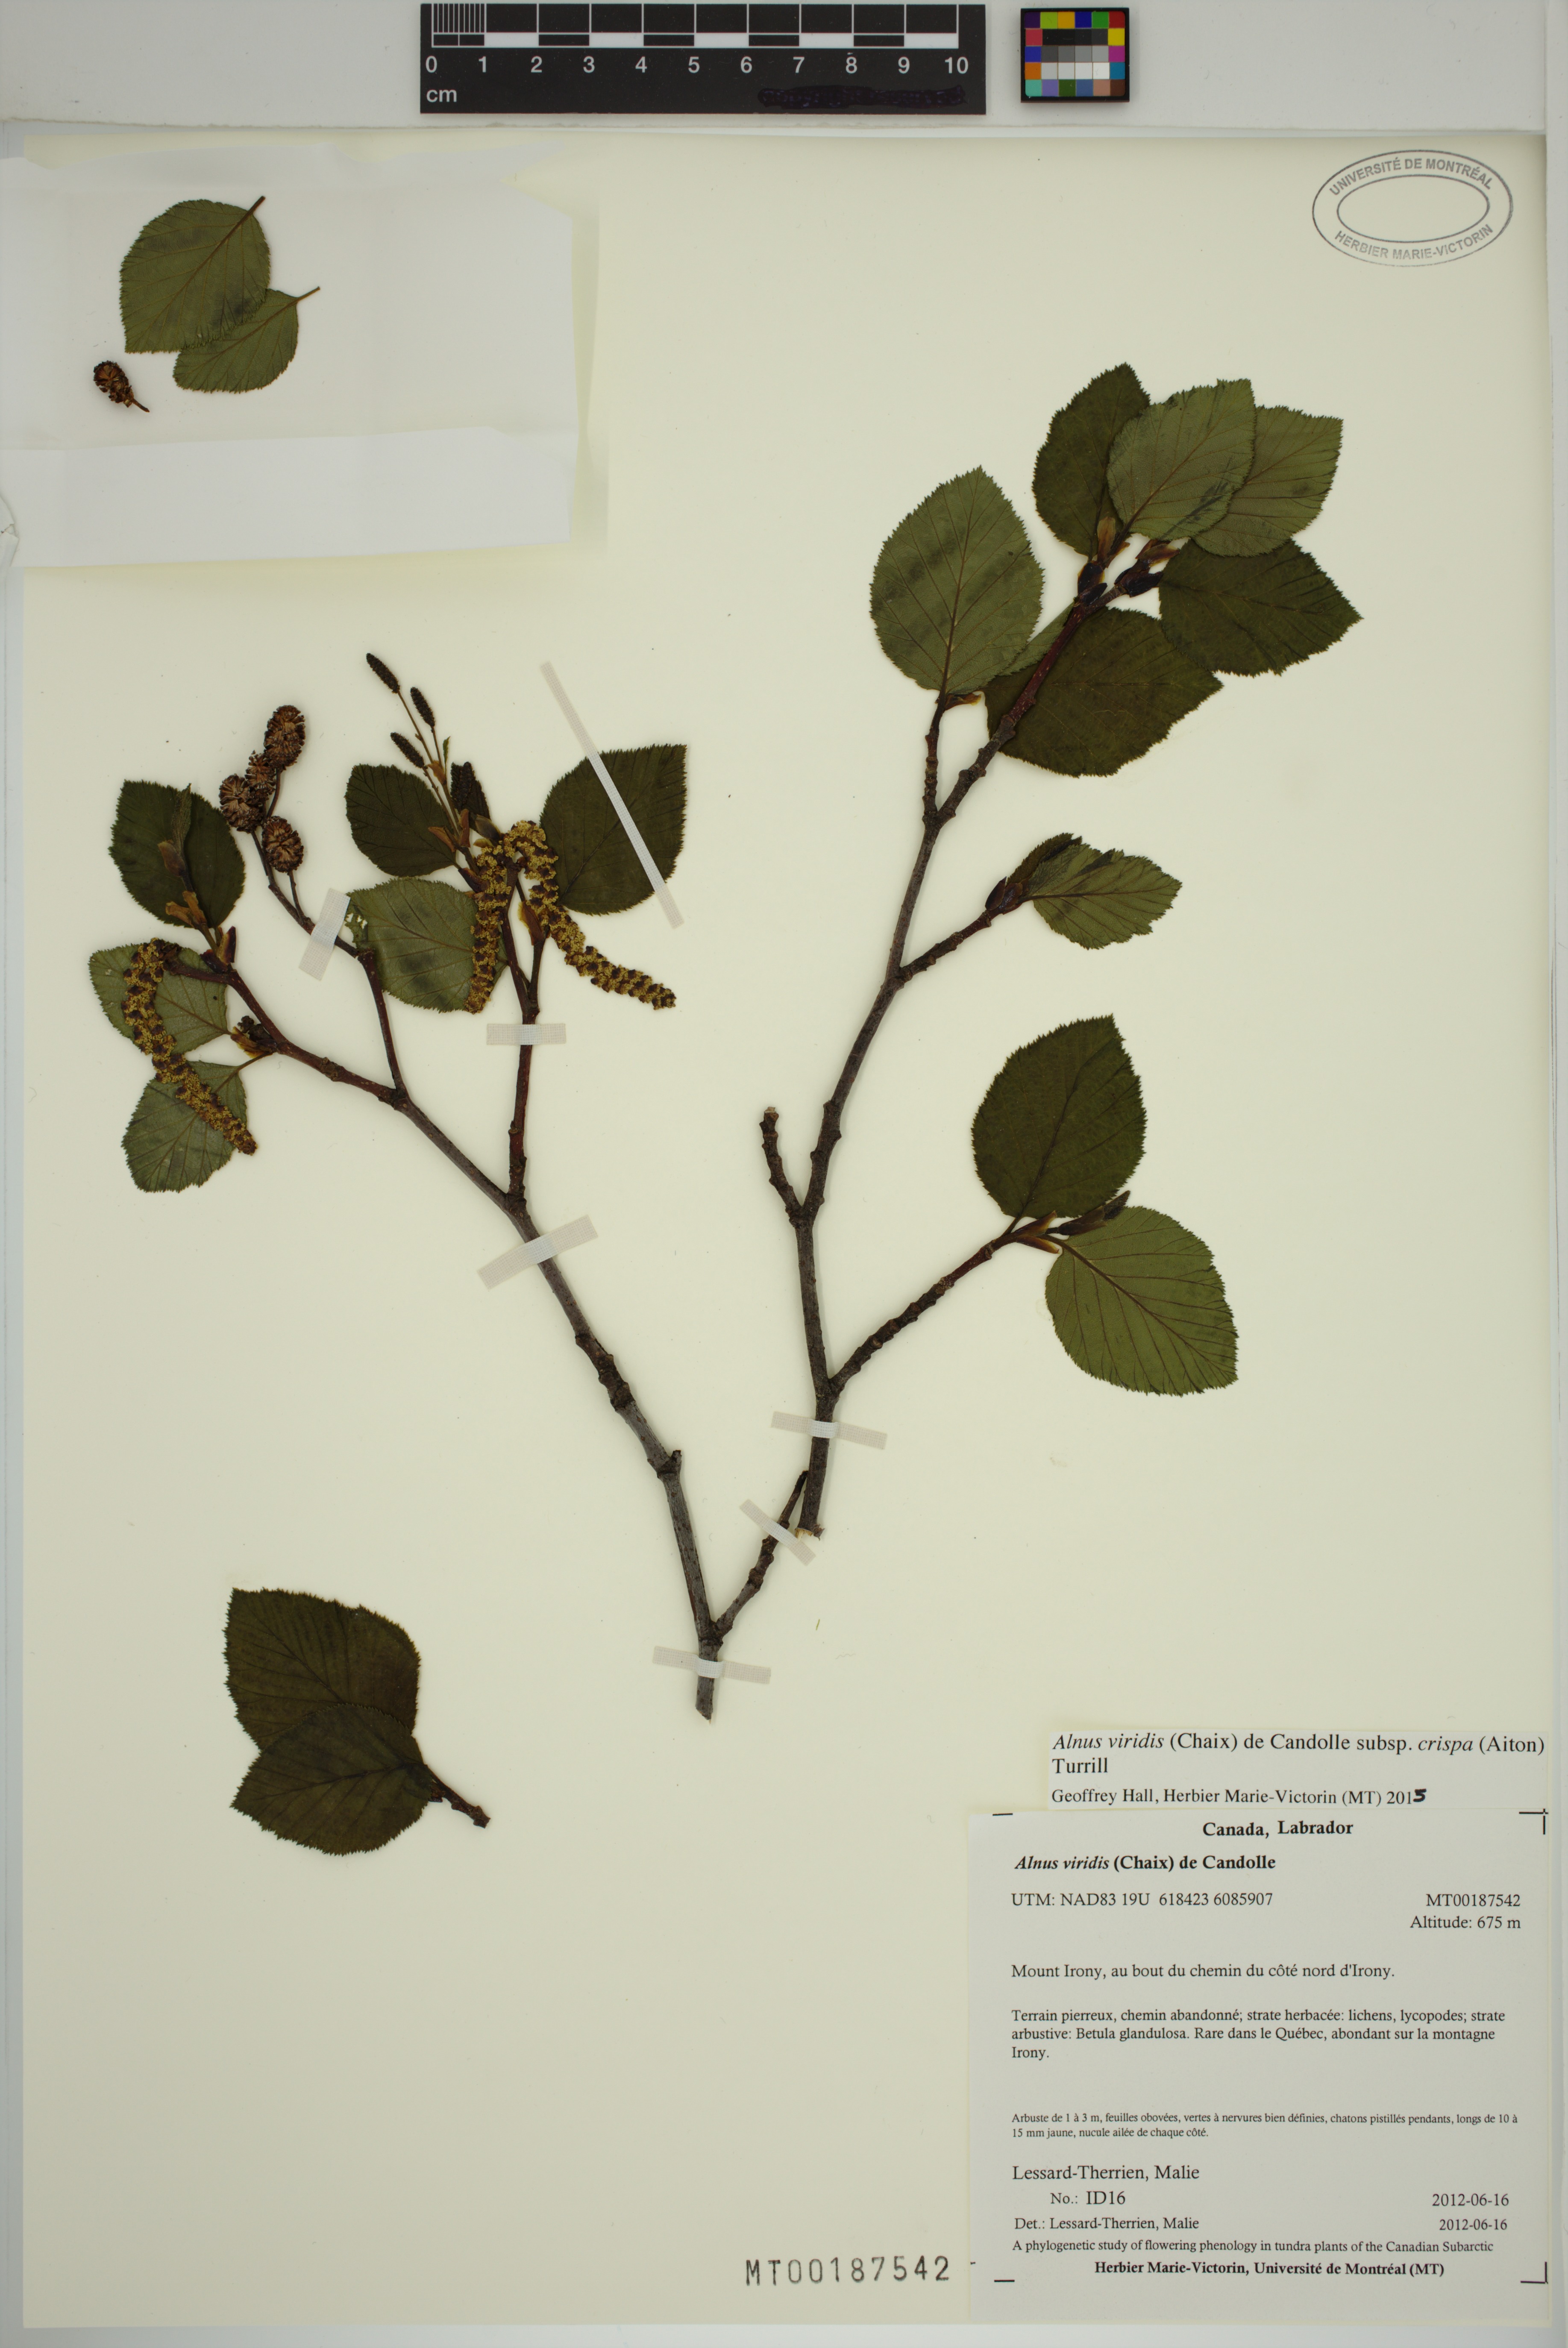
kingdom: Plantae
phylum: Tracheophyta
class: Magnoliopsida
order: Fagales
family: Betulaceae
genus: Alnus
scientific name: Alnus alnobetula
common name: Green alder
